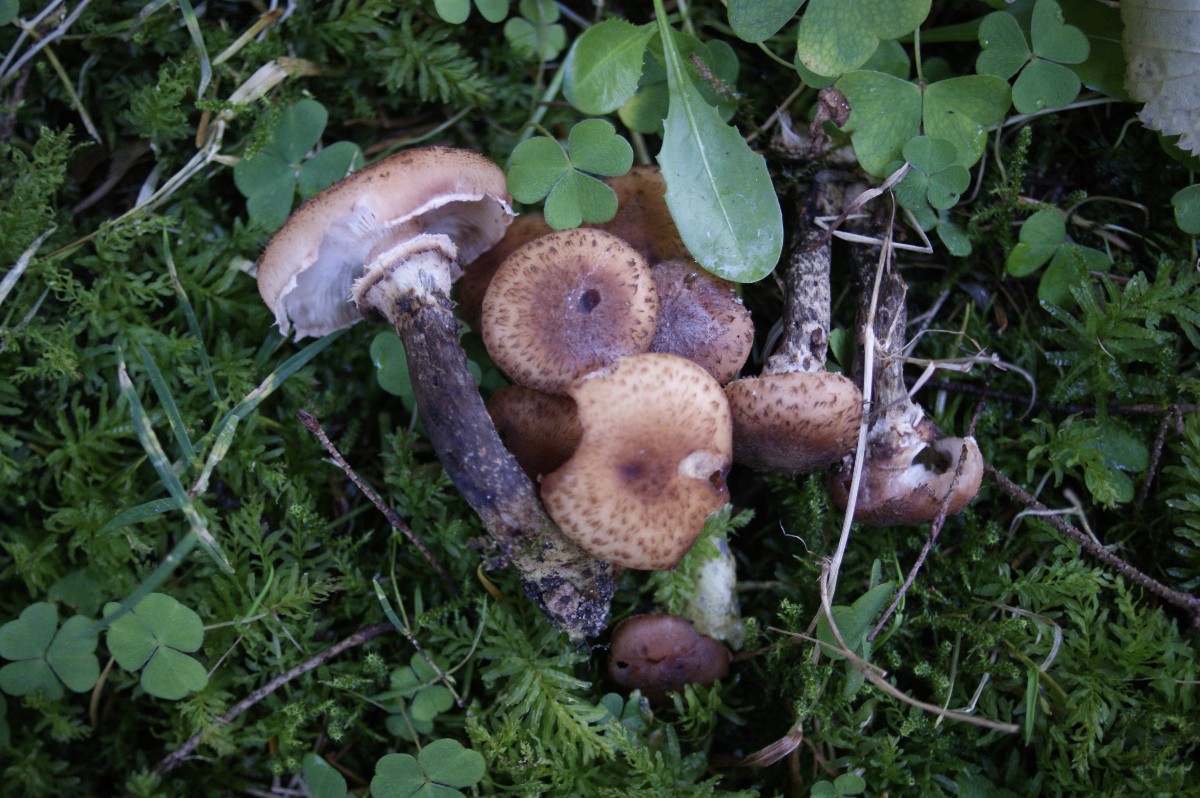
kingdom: Fungi
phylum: Basidiomycota
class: Agaricomycetes
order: Agaricales
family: Physalacriaceae
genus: Armillaria
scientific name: Armillaria ostoyae
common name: mørk honningsvamp
